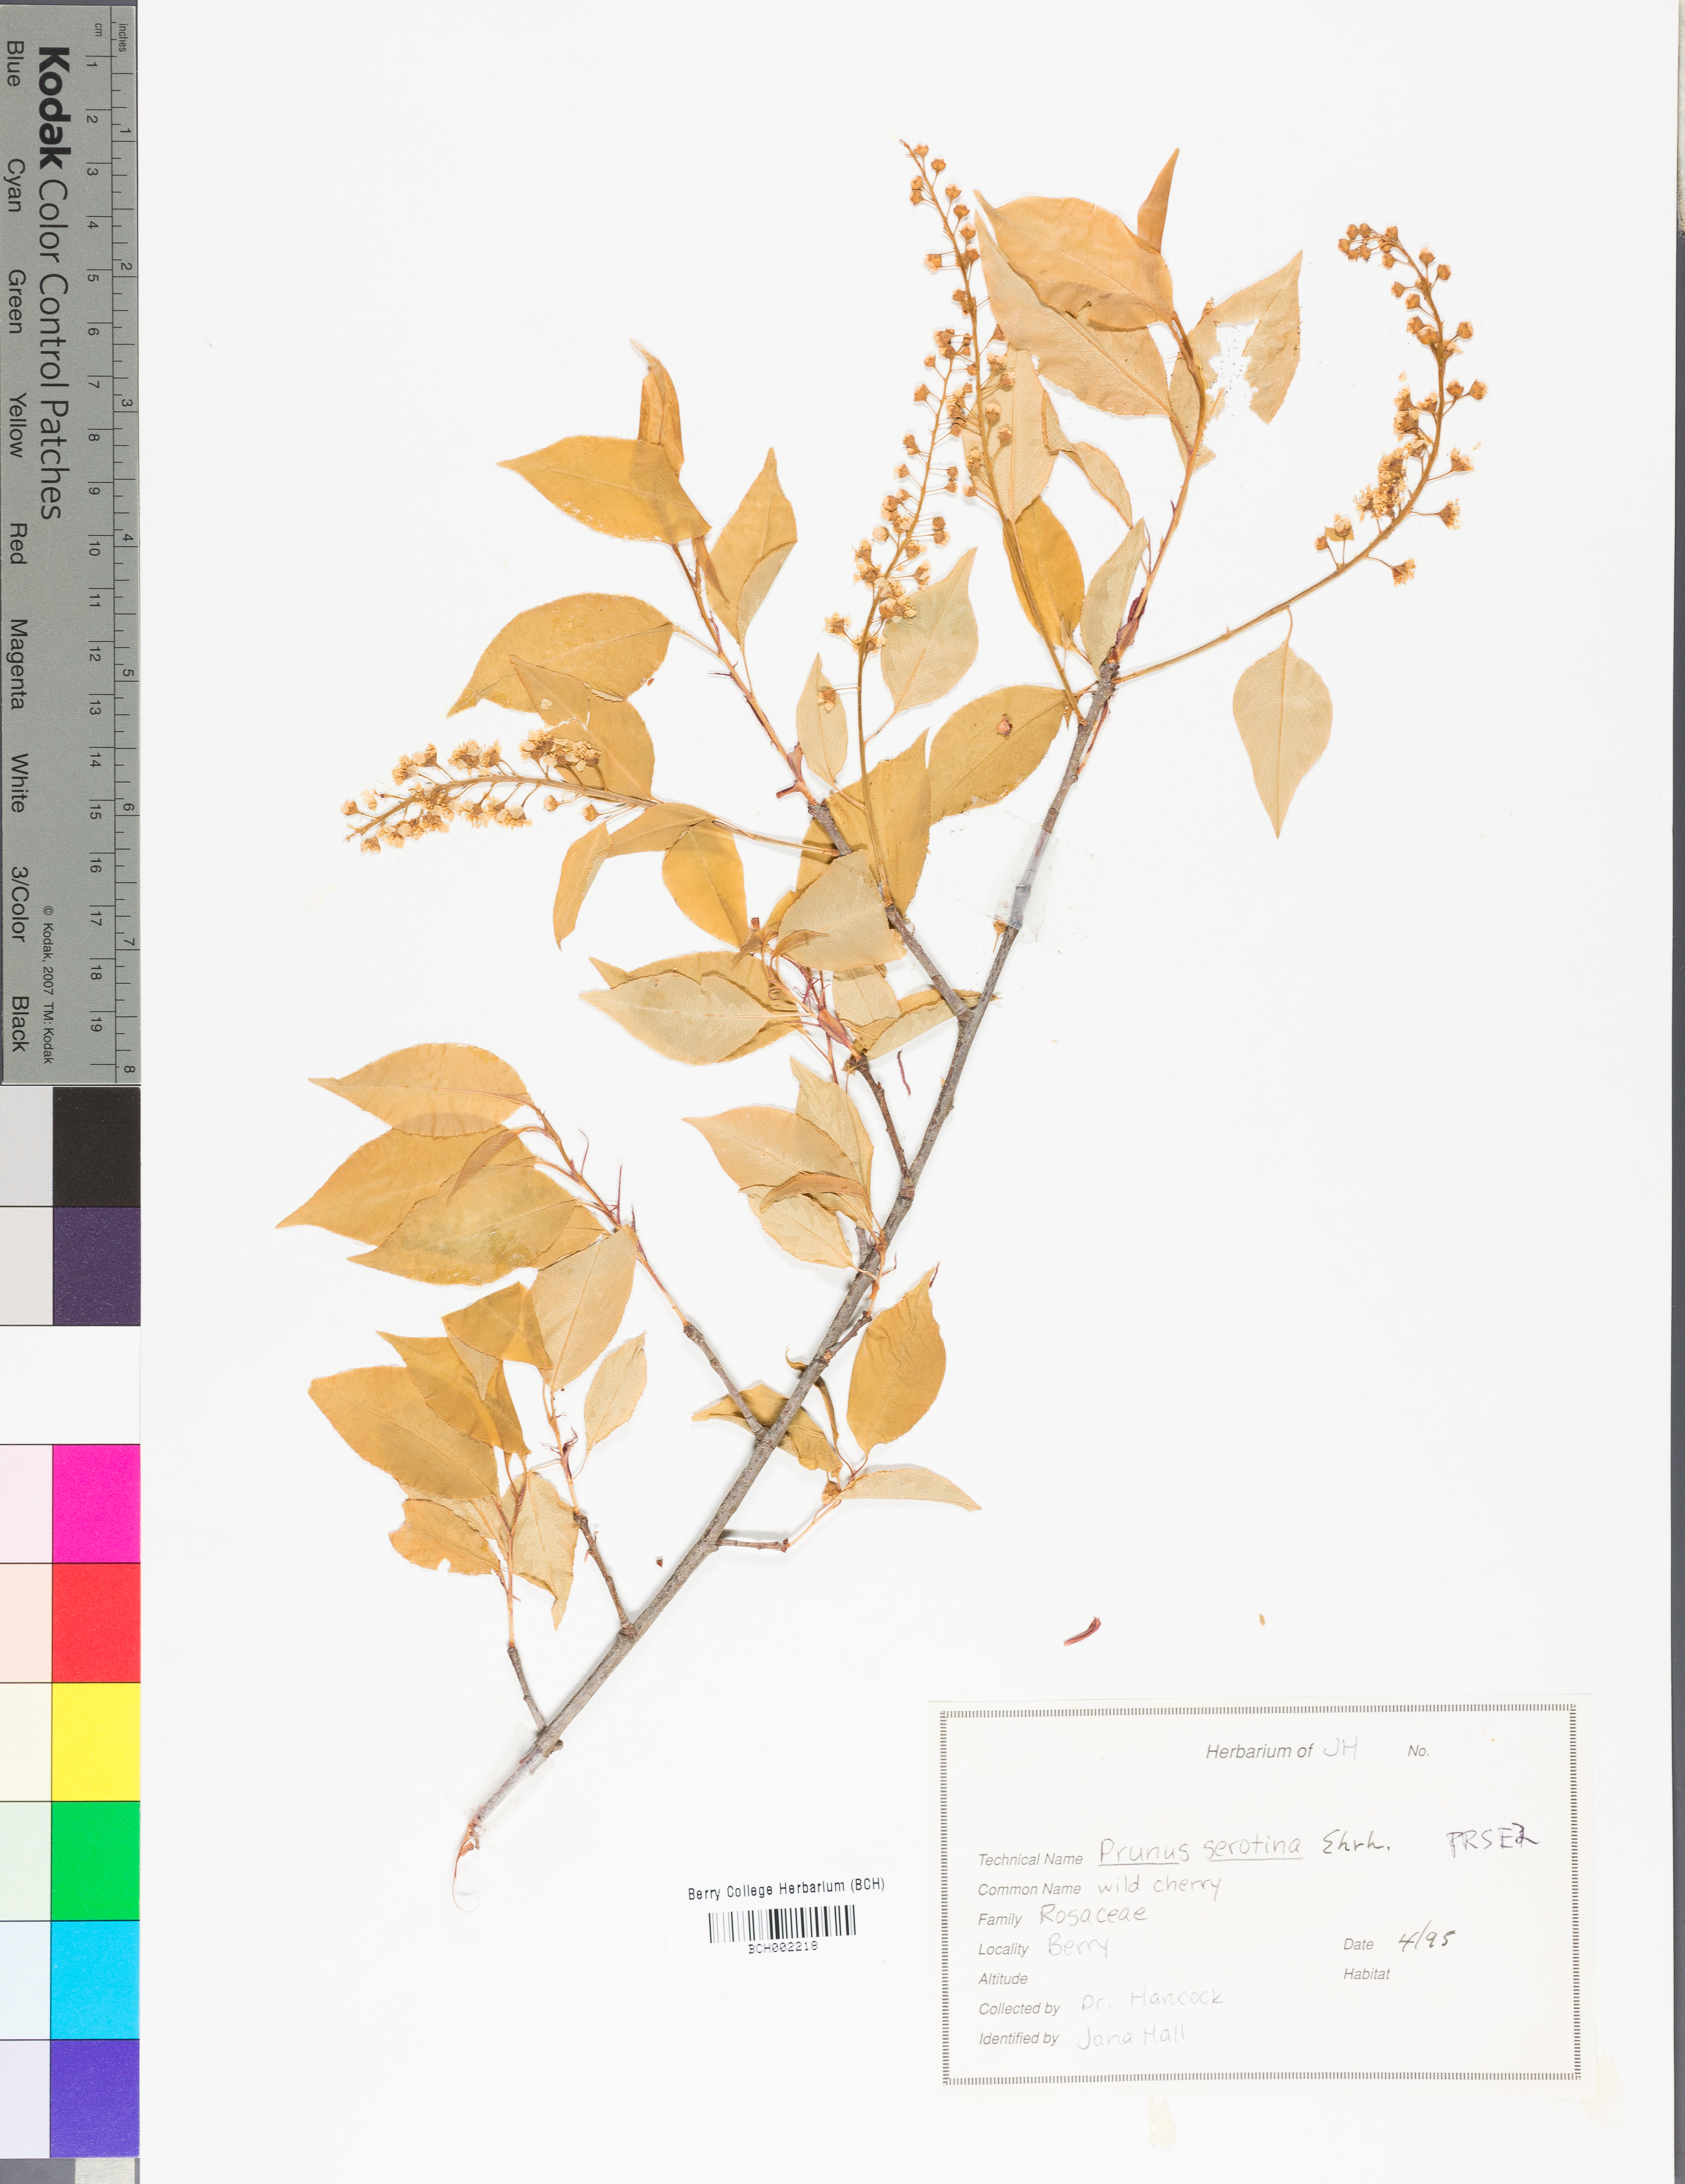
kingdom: Plantae
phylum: Tracheophyta
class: Magnoliopsida
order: Rosales
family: Rosaceae
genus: Prunus
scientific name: Prunus serotina
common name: Black cherry
